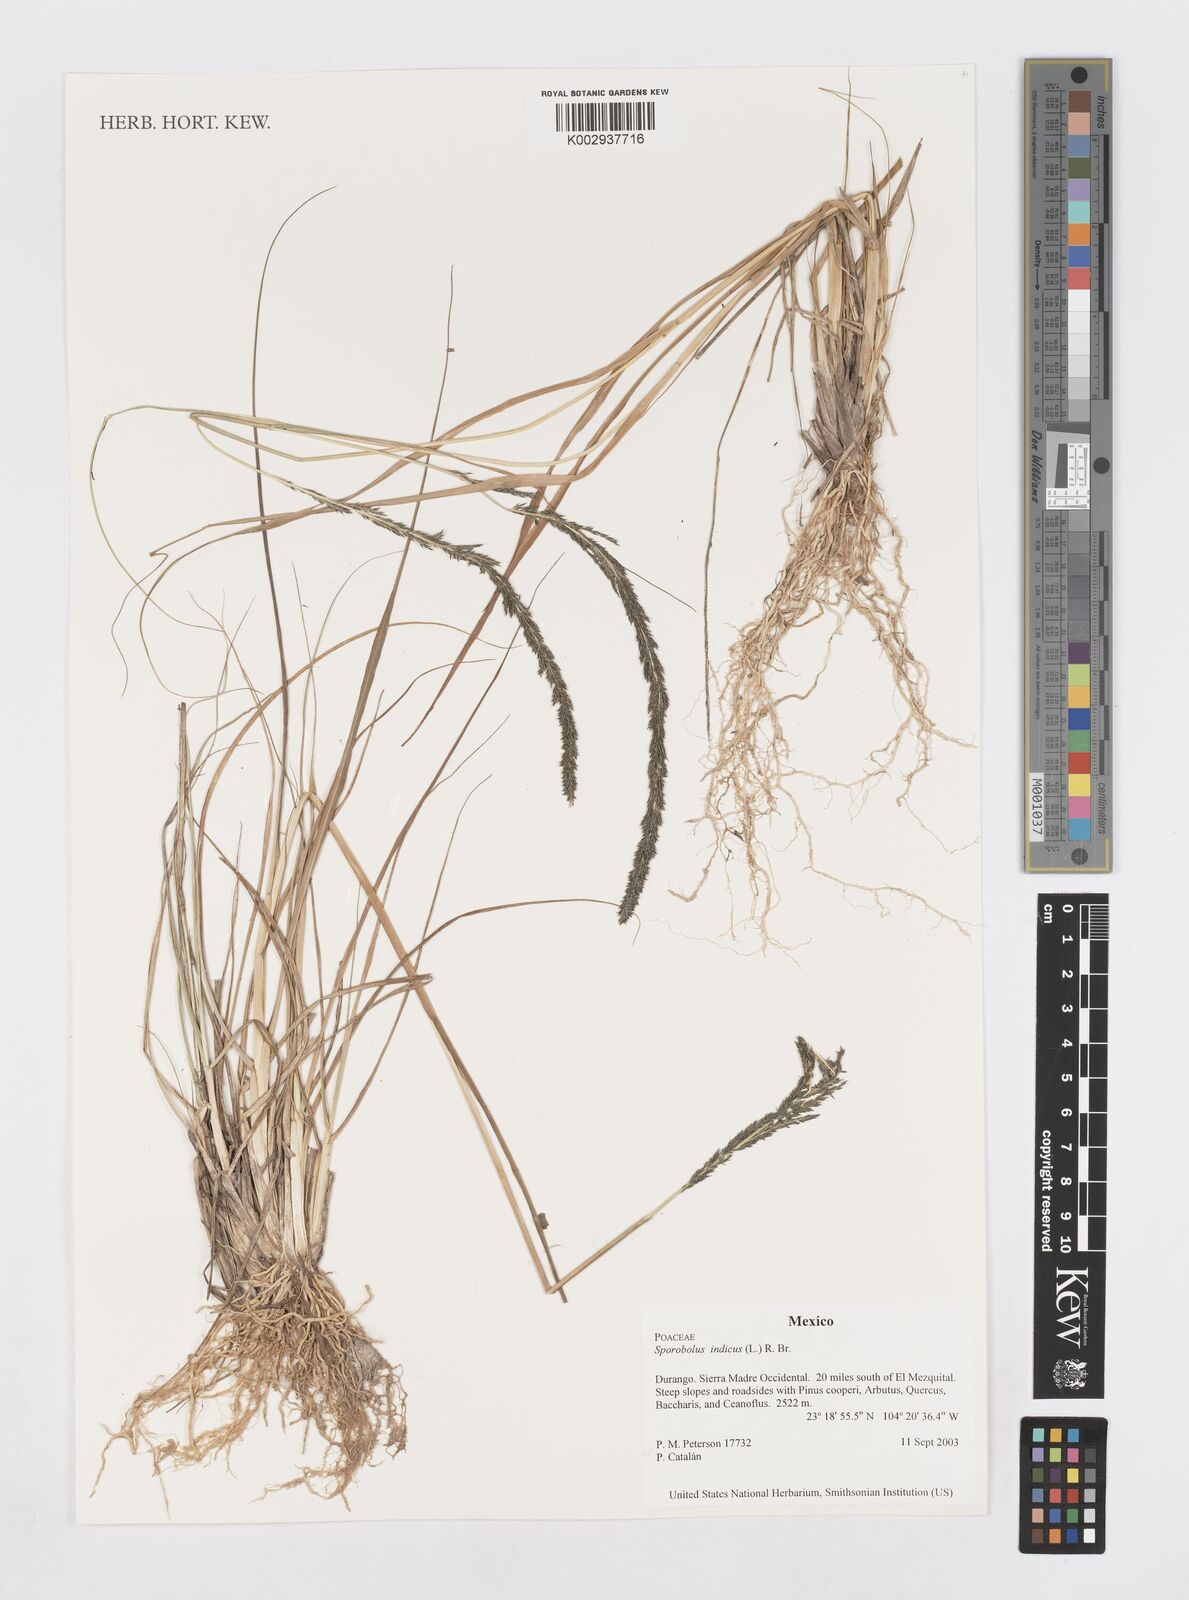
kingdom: Plantae
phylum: Tracheophyta
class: Liliopsida
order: Poales
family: Poaceae
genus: Sporobolus
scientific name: Sporobolus junceus
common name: Lizard grass
